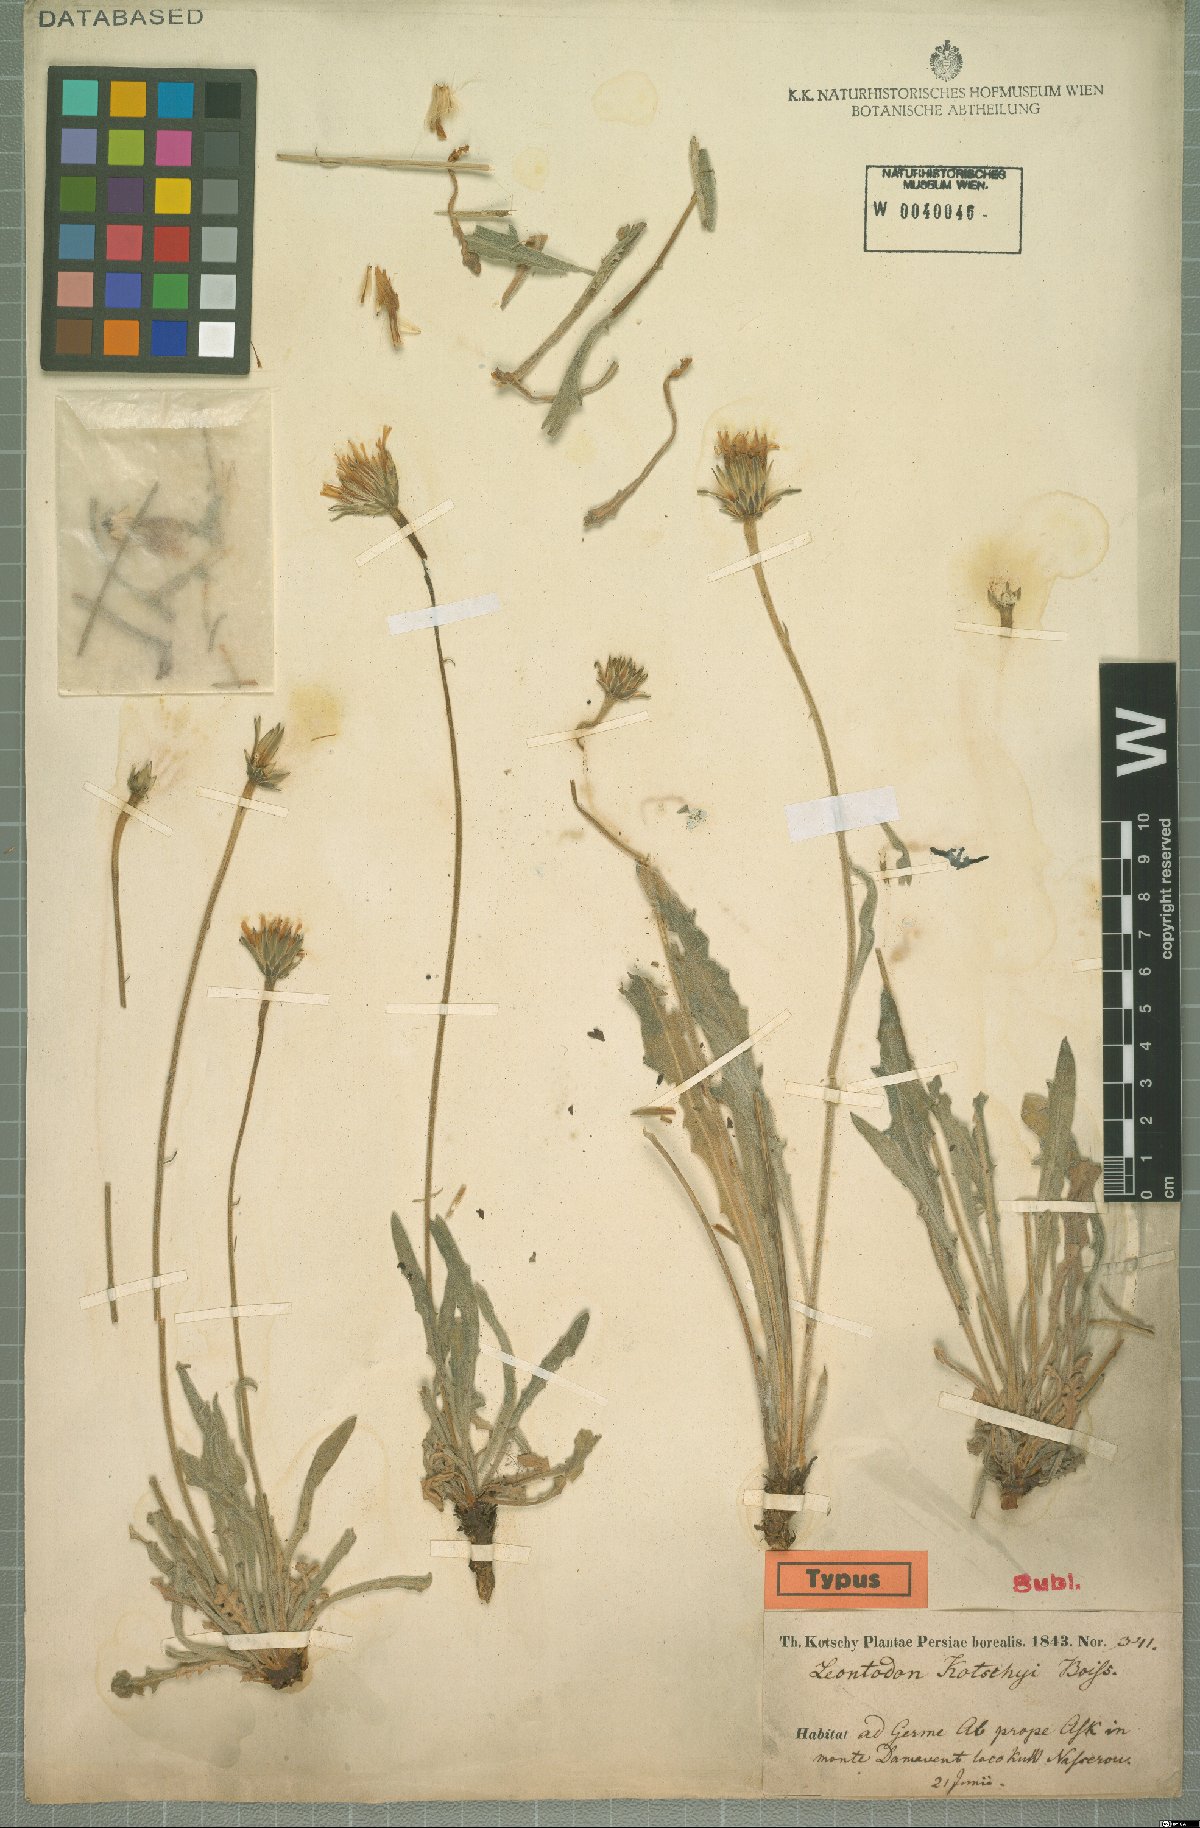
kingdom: Plantae
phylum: Tracheophyta
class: Magnoliopsida
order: Asterales
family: Asteraceae
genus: Leontodon
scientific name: Leontodon kotschyi
